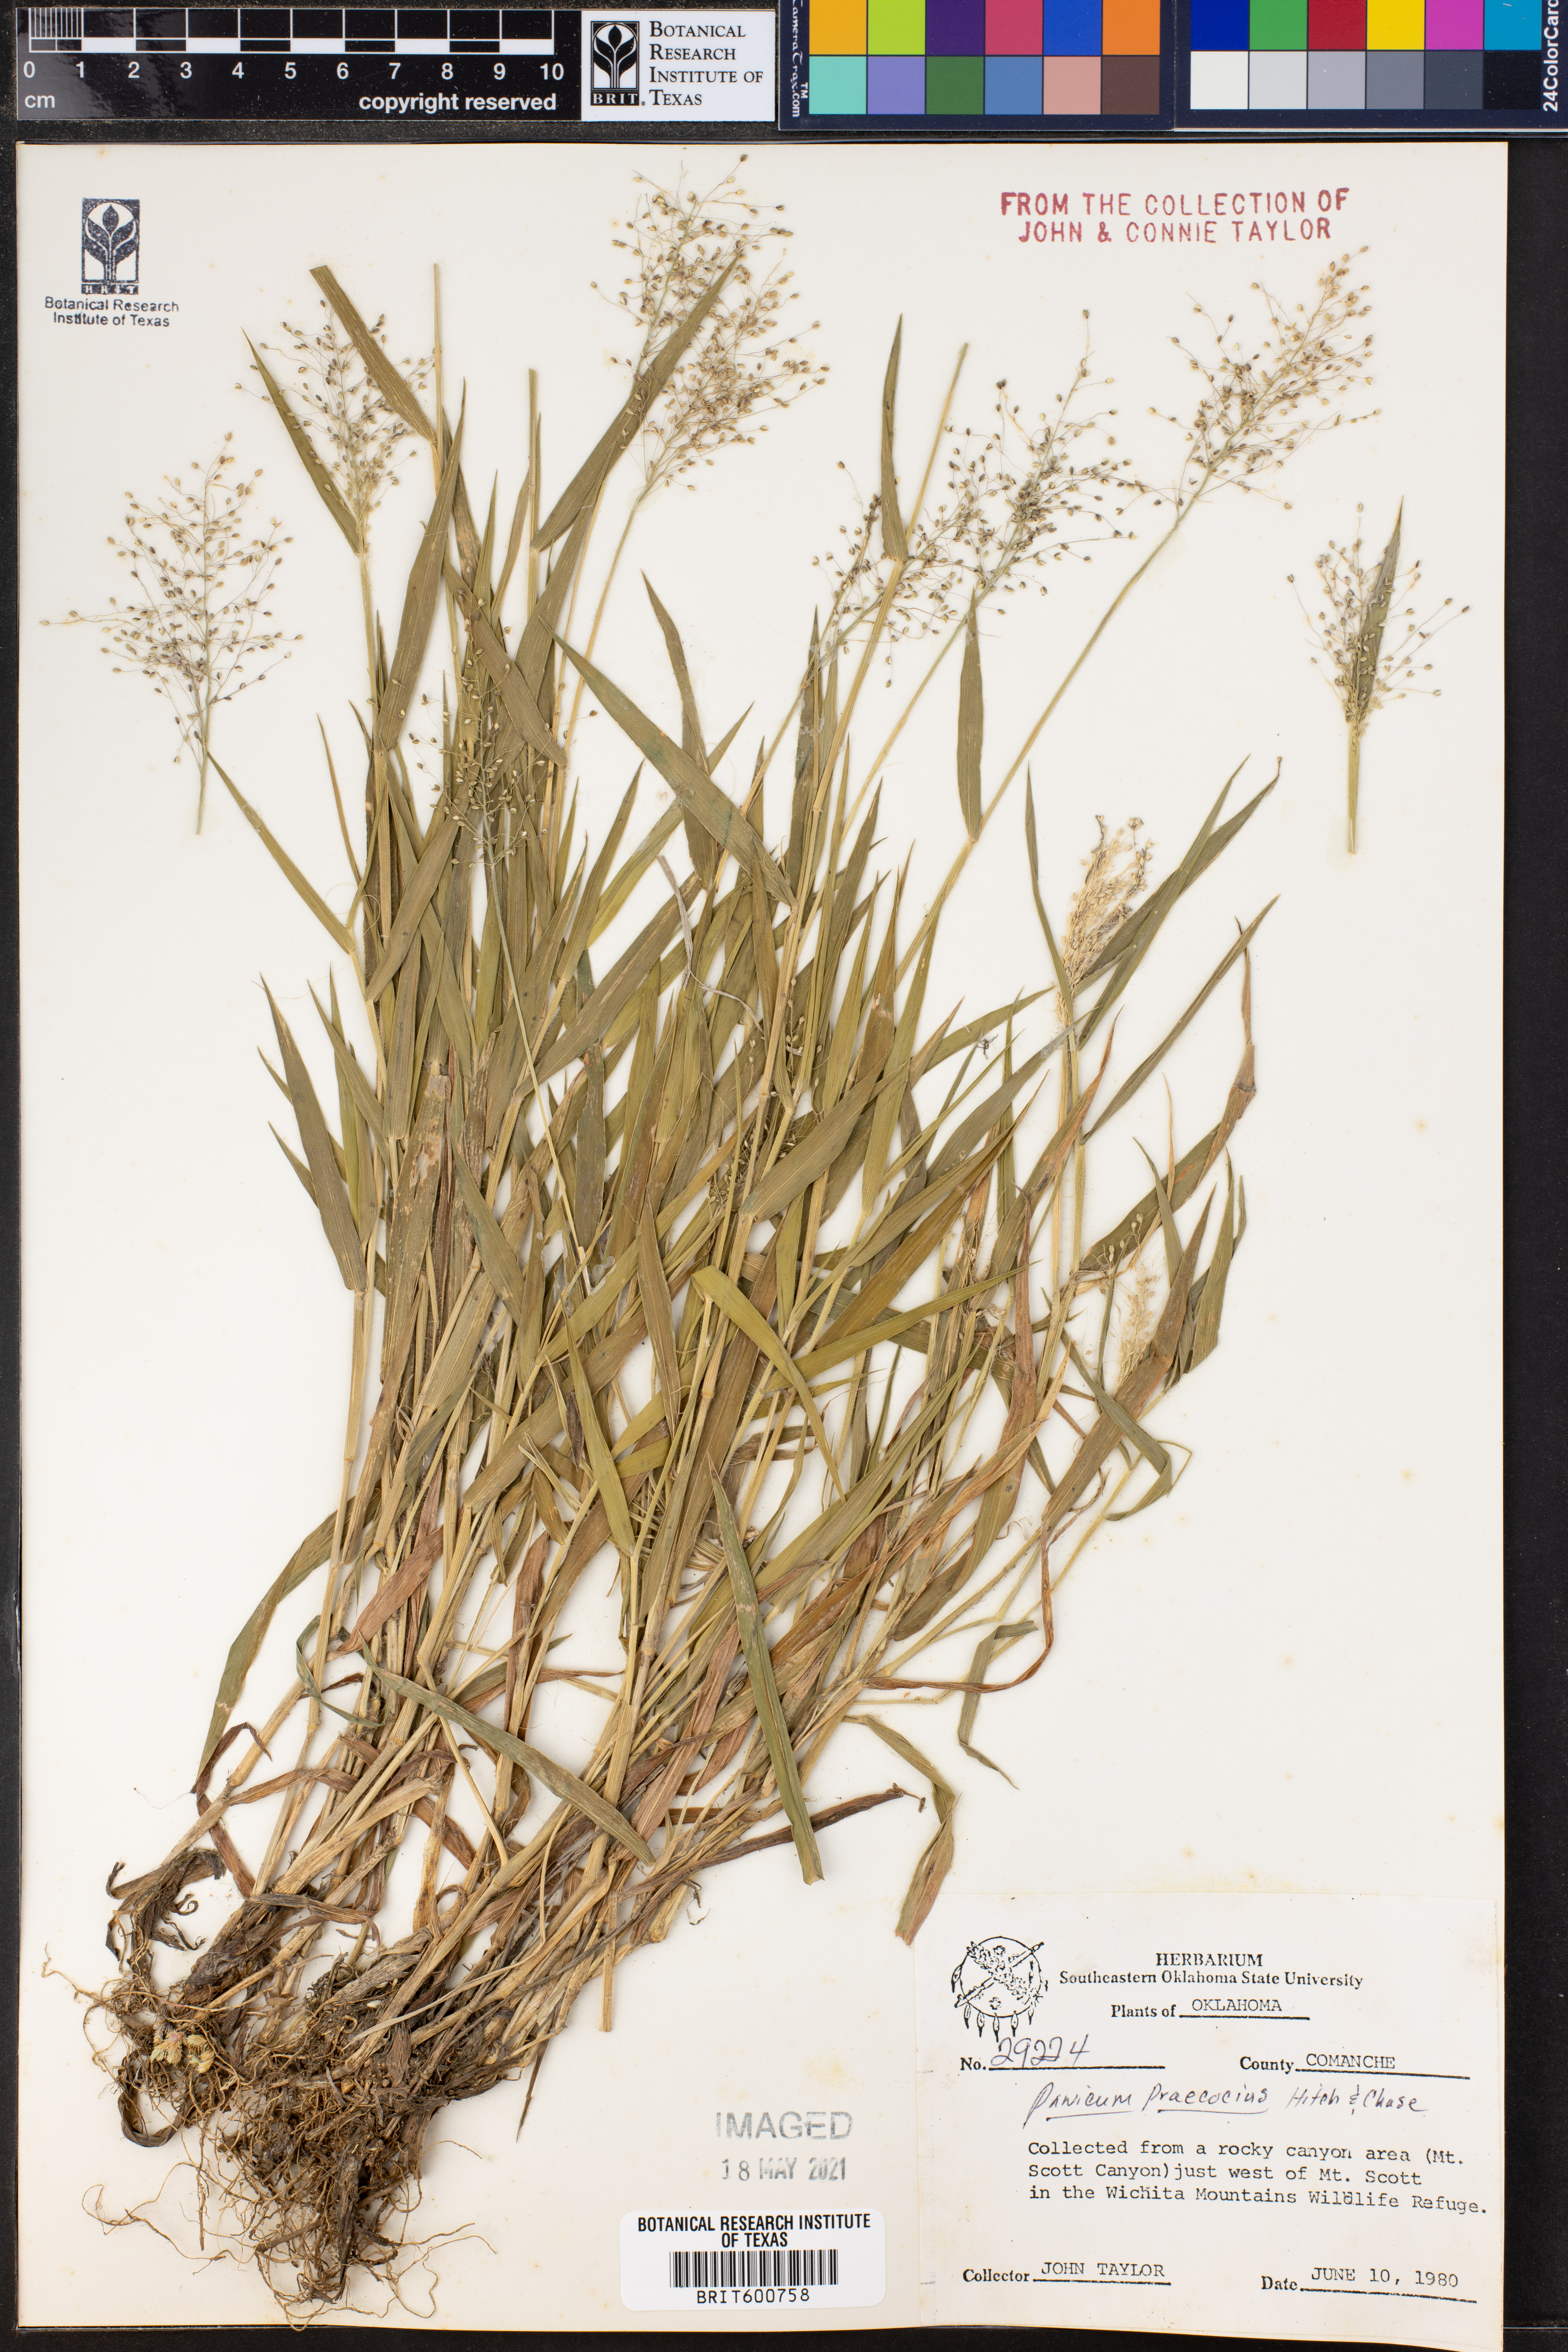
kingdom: Plantae
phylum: Tracheophyta
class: Liliopsida
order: Poales
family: Poaceae
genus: Dichanthelium
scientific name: Dichanthelium praecocius
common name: Early-branching panicgrass
